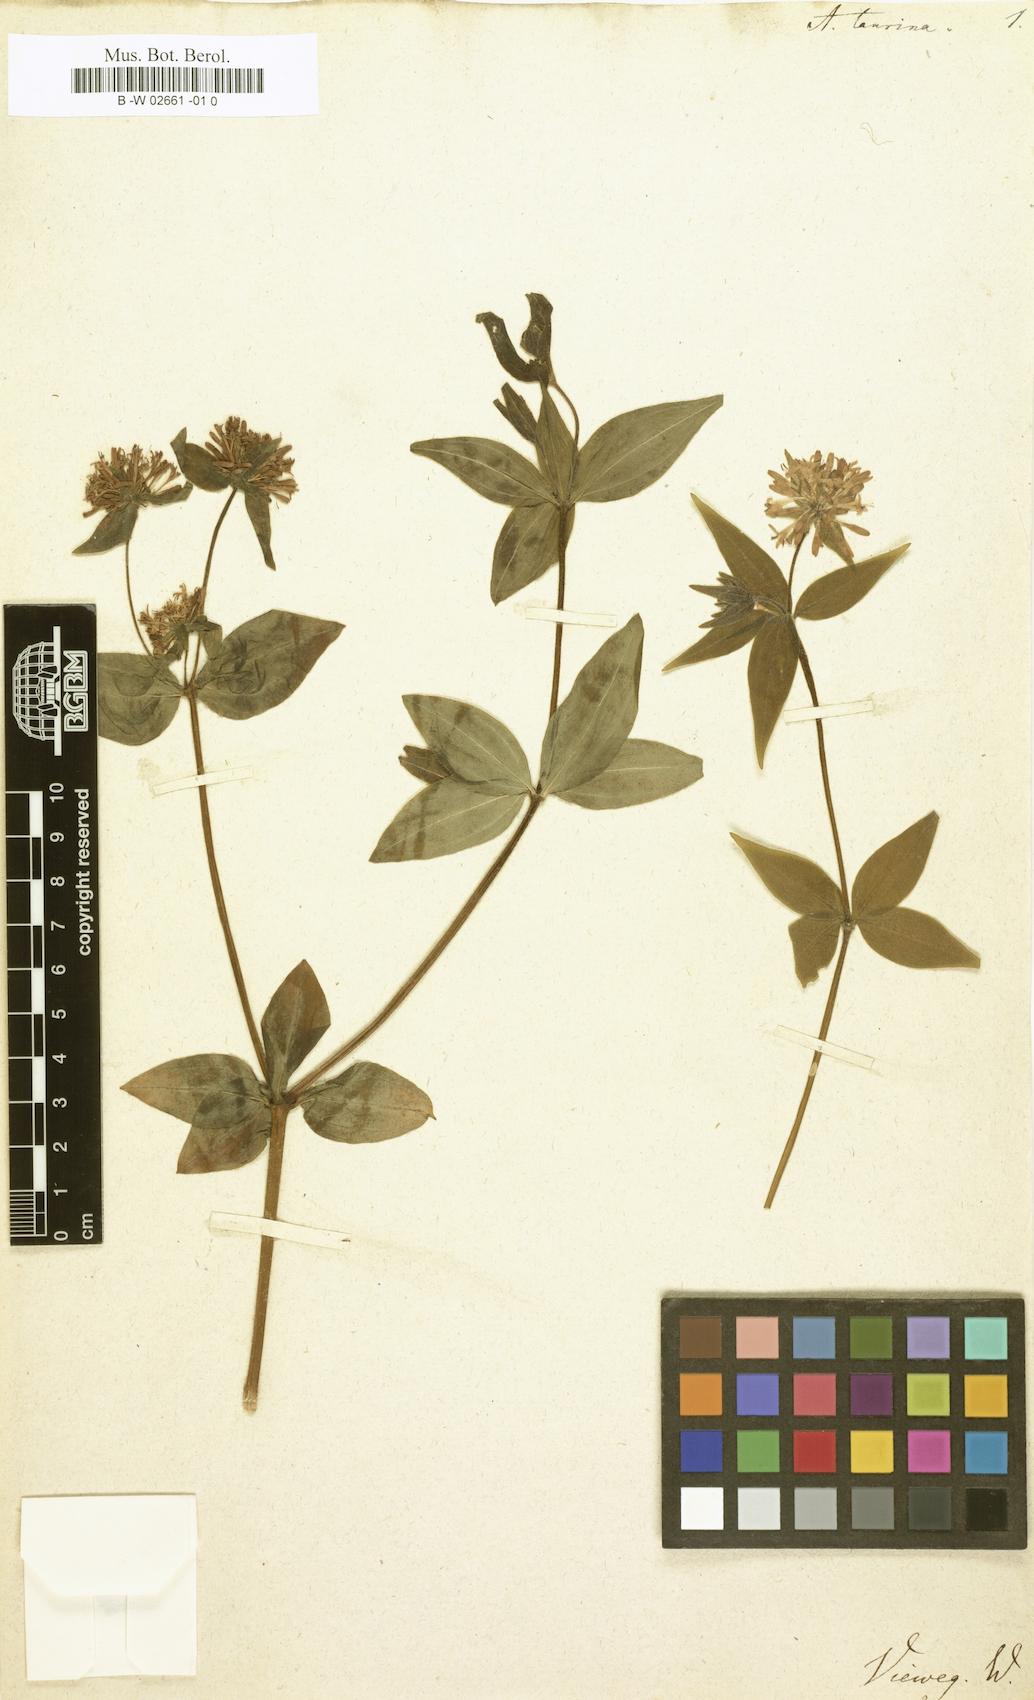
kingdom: Plantae
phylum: Tracheophyta
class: Magnoliopsida
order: Gentianales
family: Rubiaceae
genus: Asperula
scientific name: Asperula taurina
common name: Pink woodruff
